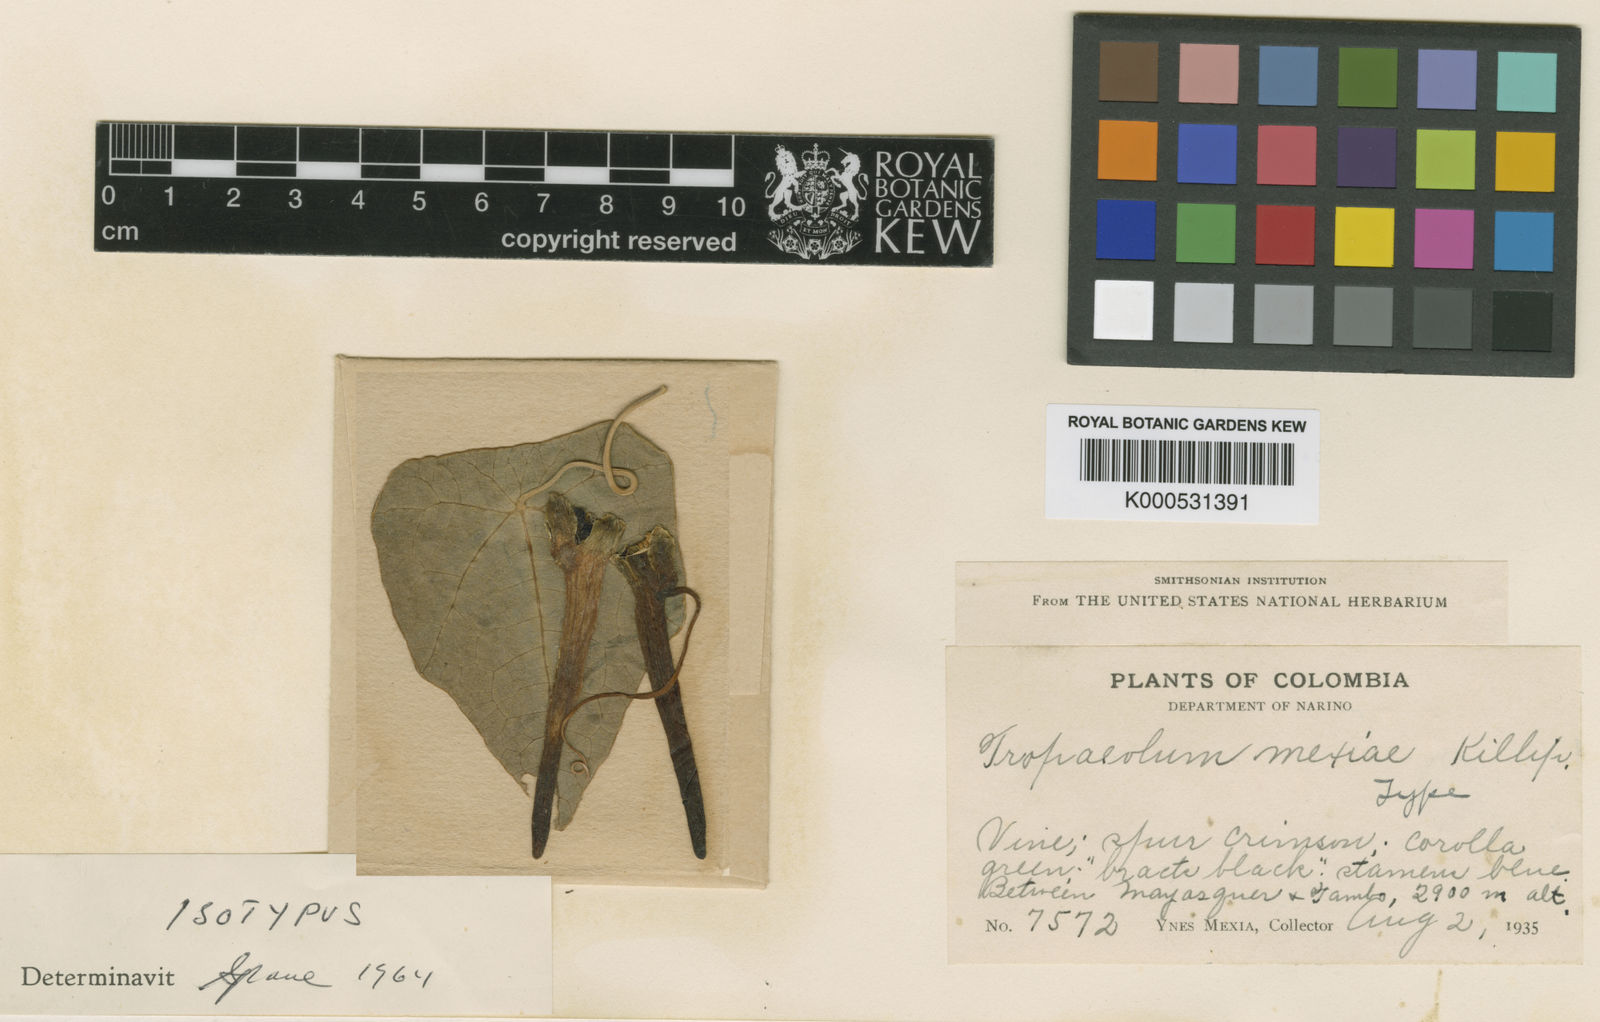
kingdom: Plantae
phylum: Tracheophyta
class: Magnoliopsida
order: Brassicales
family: Tropaeolaceae
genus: Tropaeolum
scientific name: Tropaeolum mexiae
